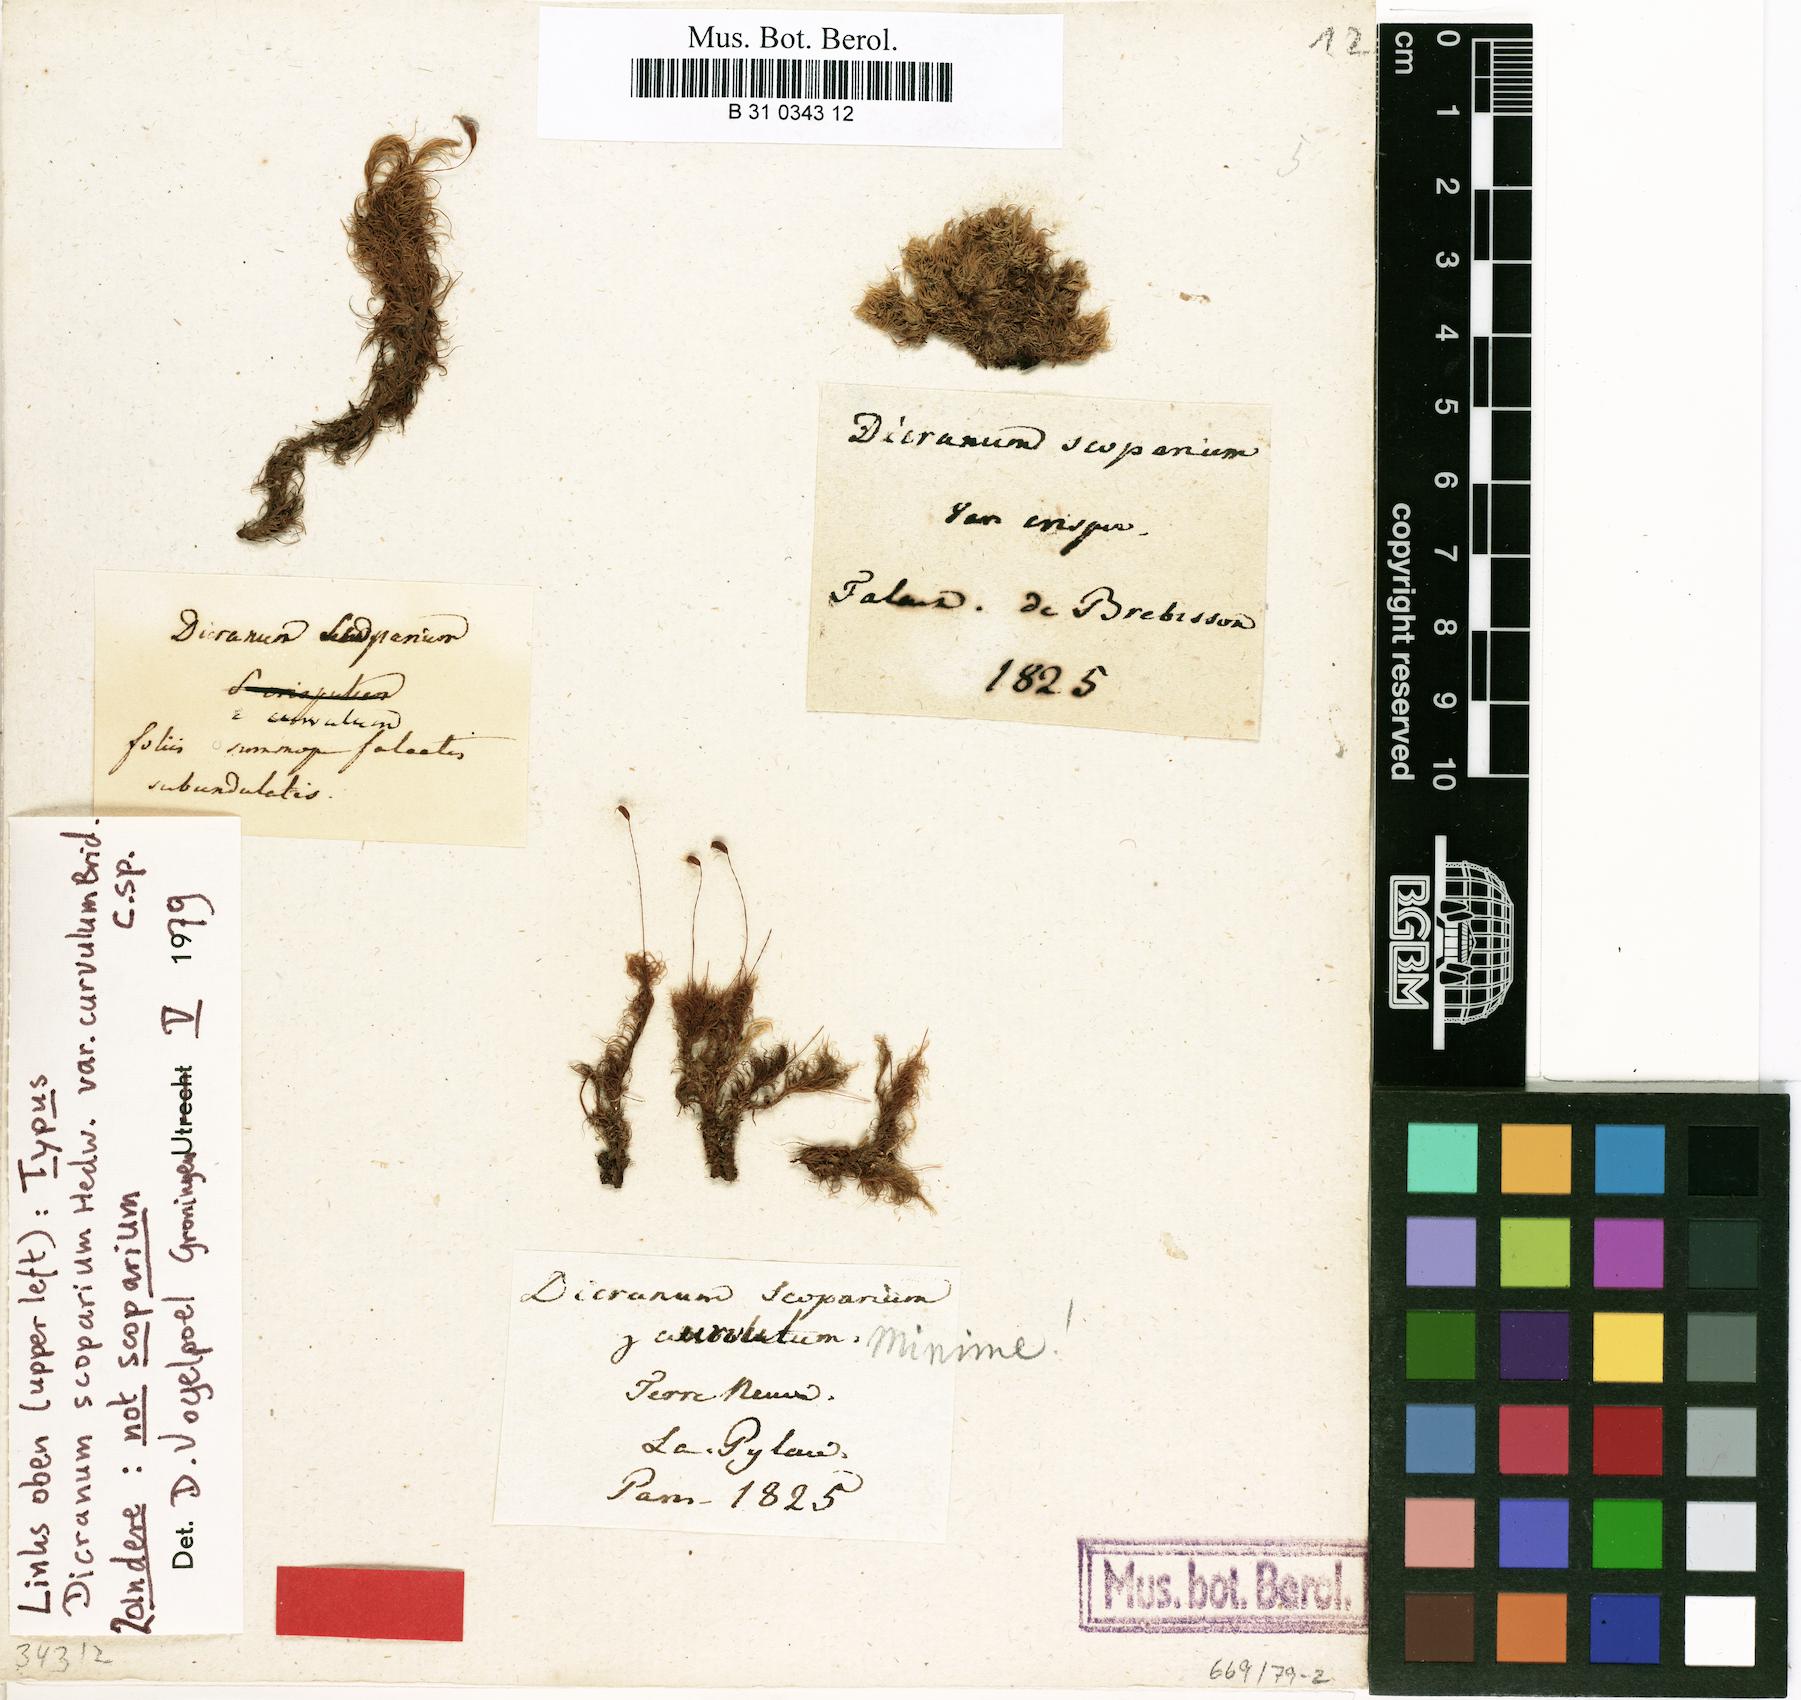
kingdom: Plantae
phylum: Bryophyta
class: Bryopsida
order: Dicranales
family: Dicranaceae
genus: Dicranum
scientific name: Dicranum scoparium
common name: Broom fork-moss
